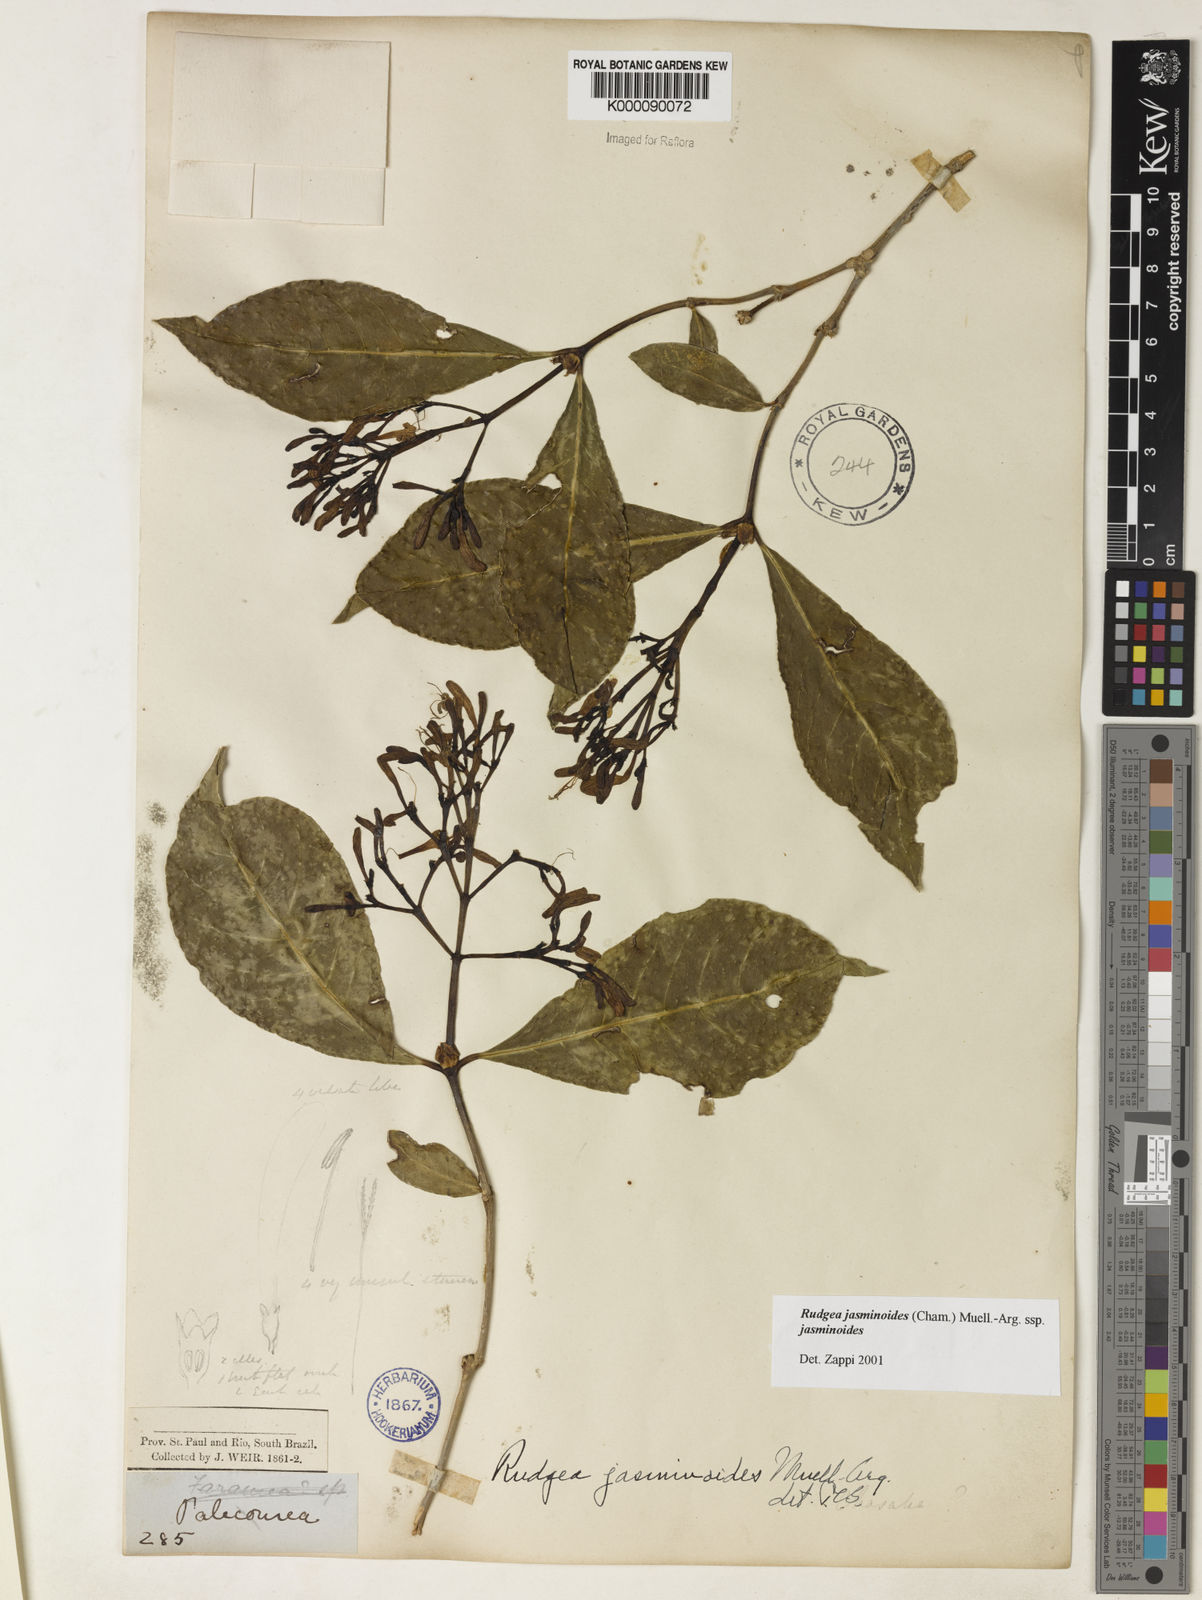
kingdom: Plantae
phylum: Tracheophyta
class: Magnoliopsida
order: Gentianales
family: Rubiaceae
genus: Rudgea
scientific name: Rudgea jasminoides
